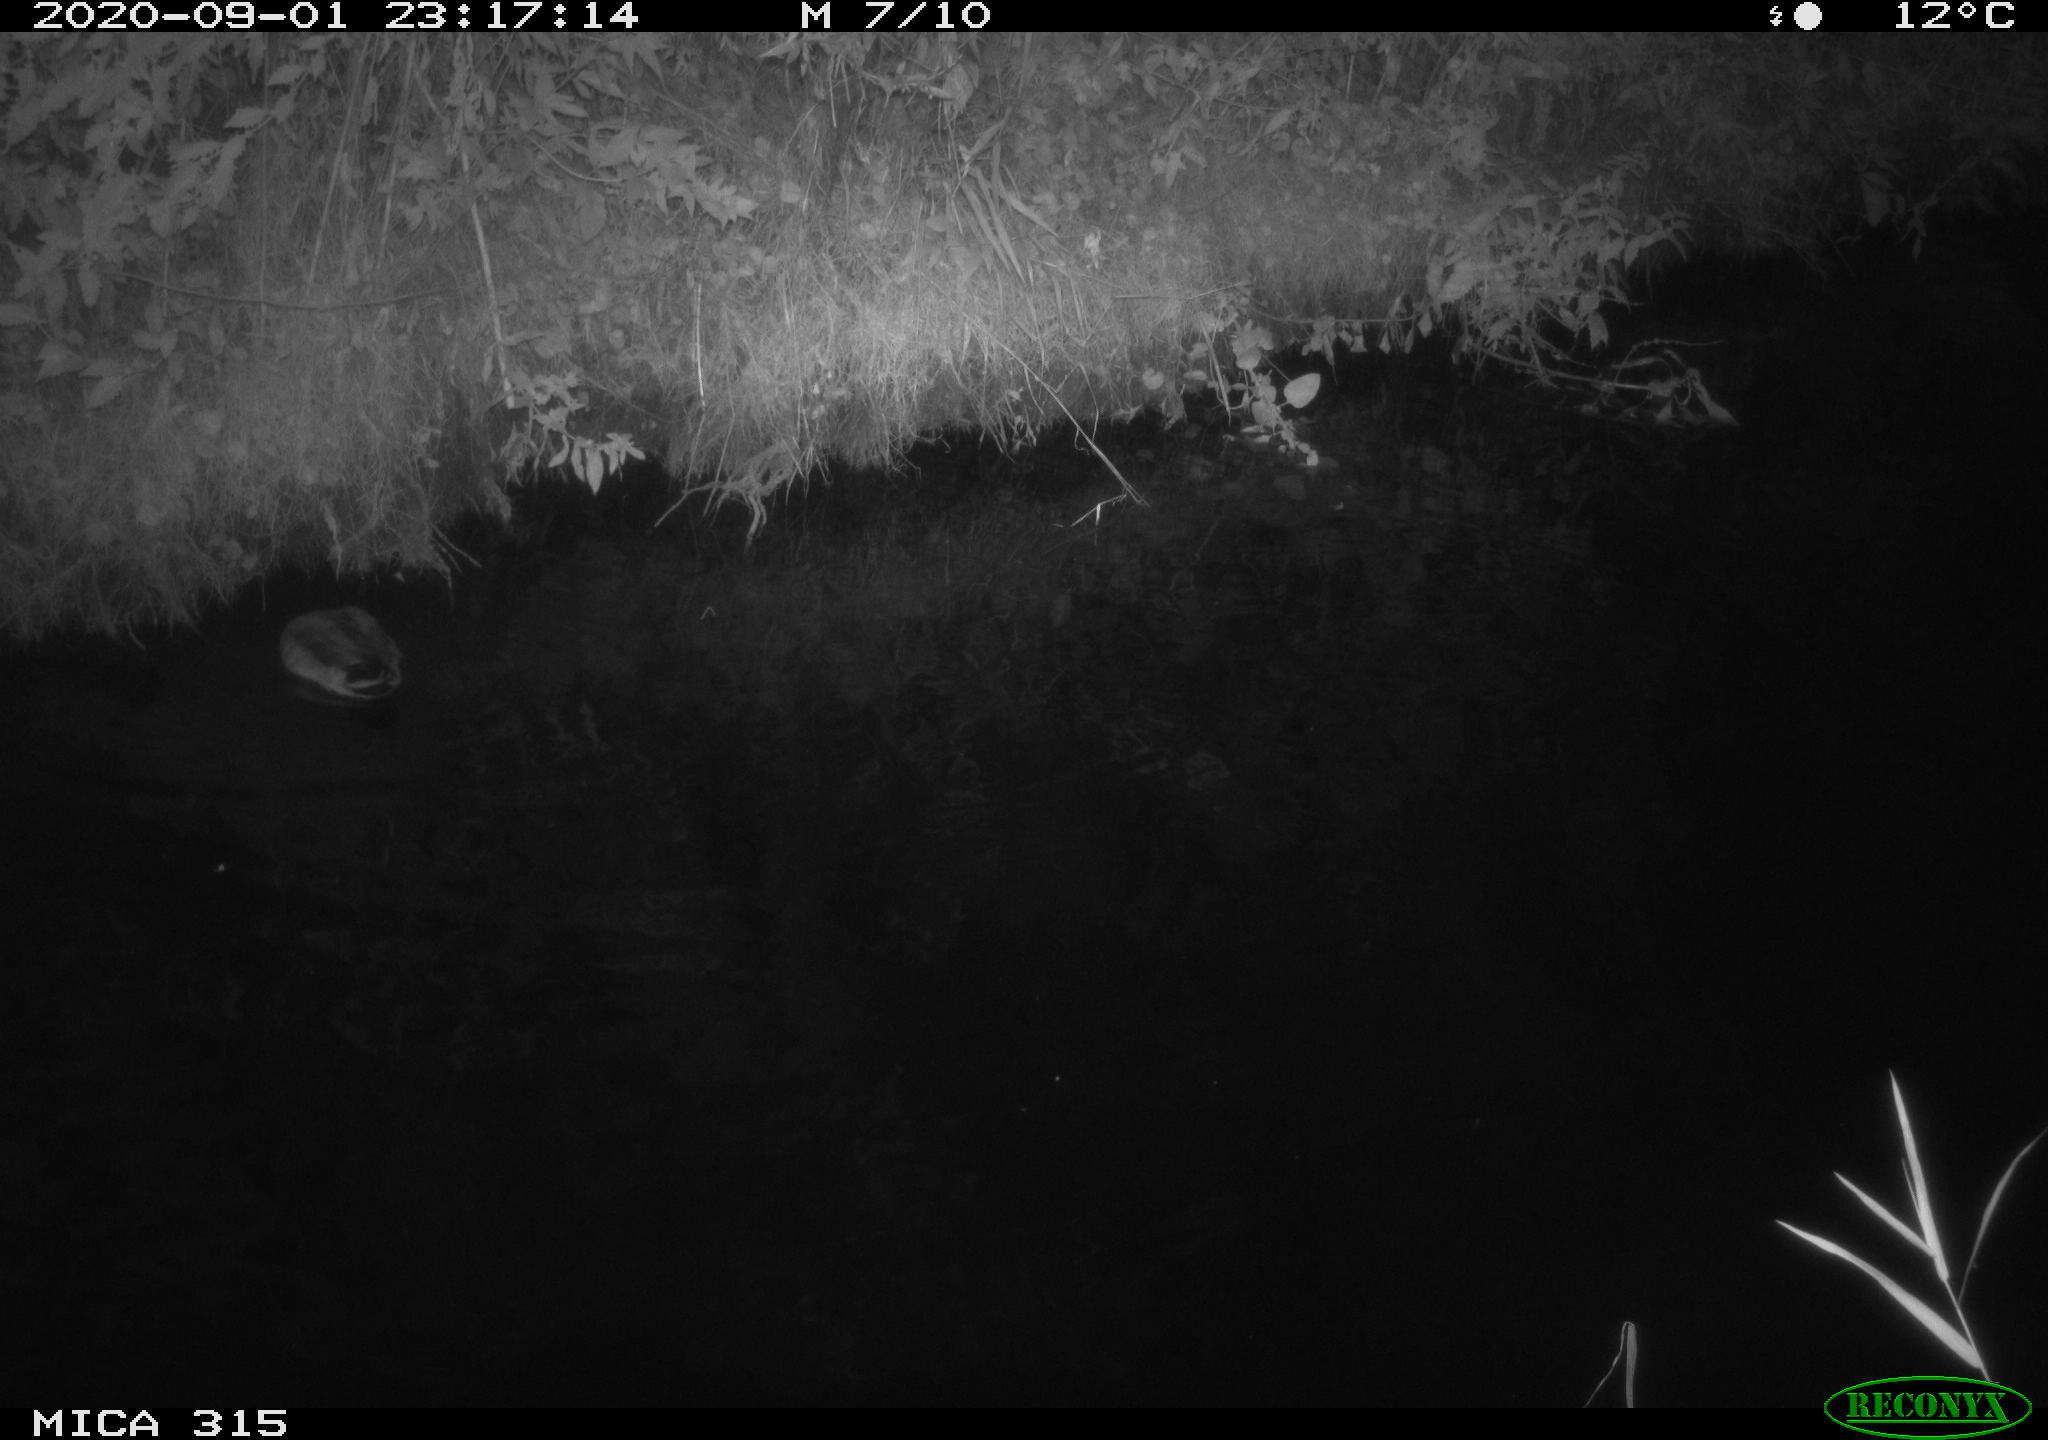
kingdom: Animalia
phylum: Chordata
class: Aves
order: Anseriformes
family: Anatidae
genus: Anas
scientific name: Anas platyrhynchos
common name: Mallard
